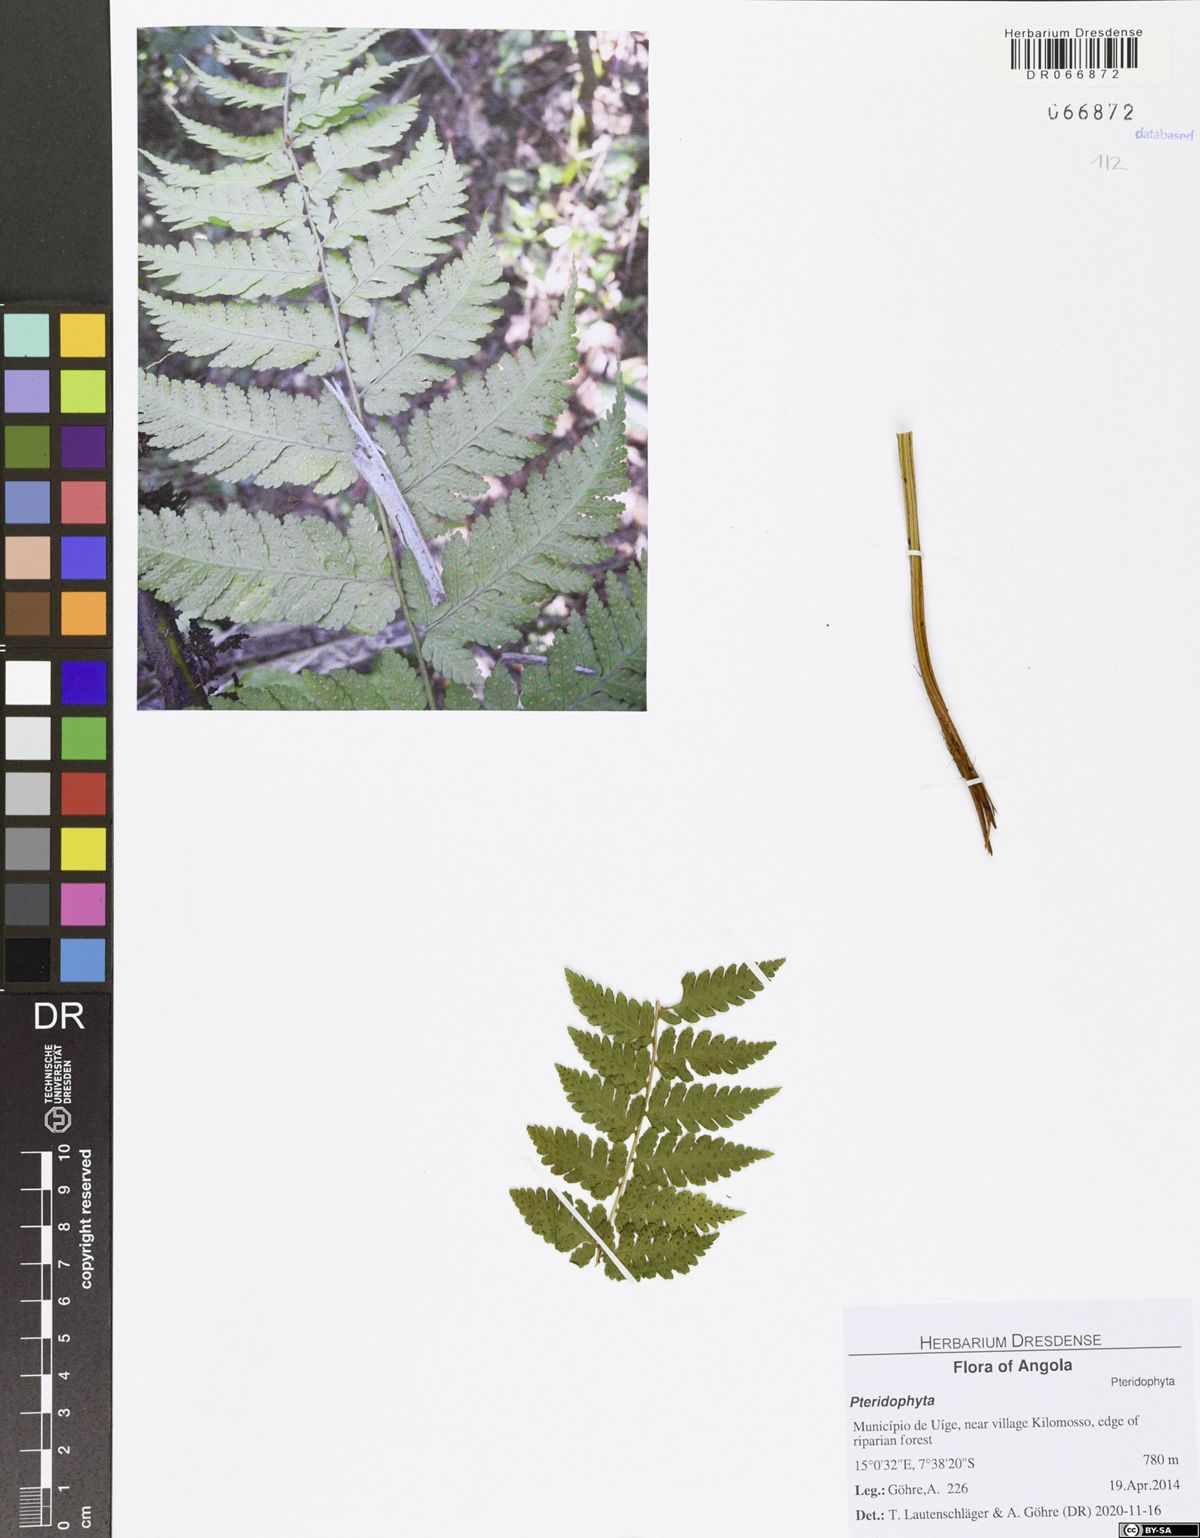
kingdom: Plantae
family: Pteridophyta
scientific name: Pteridophyta
